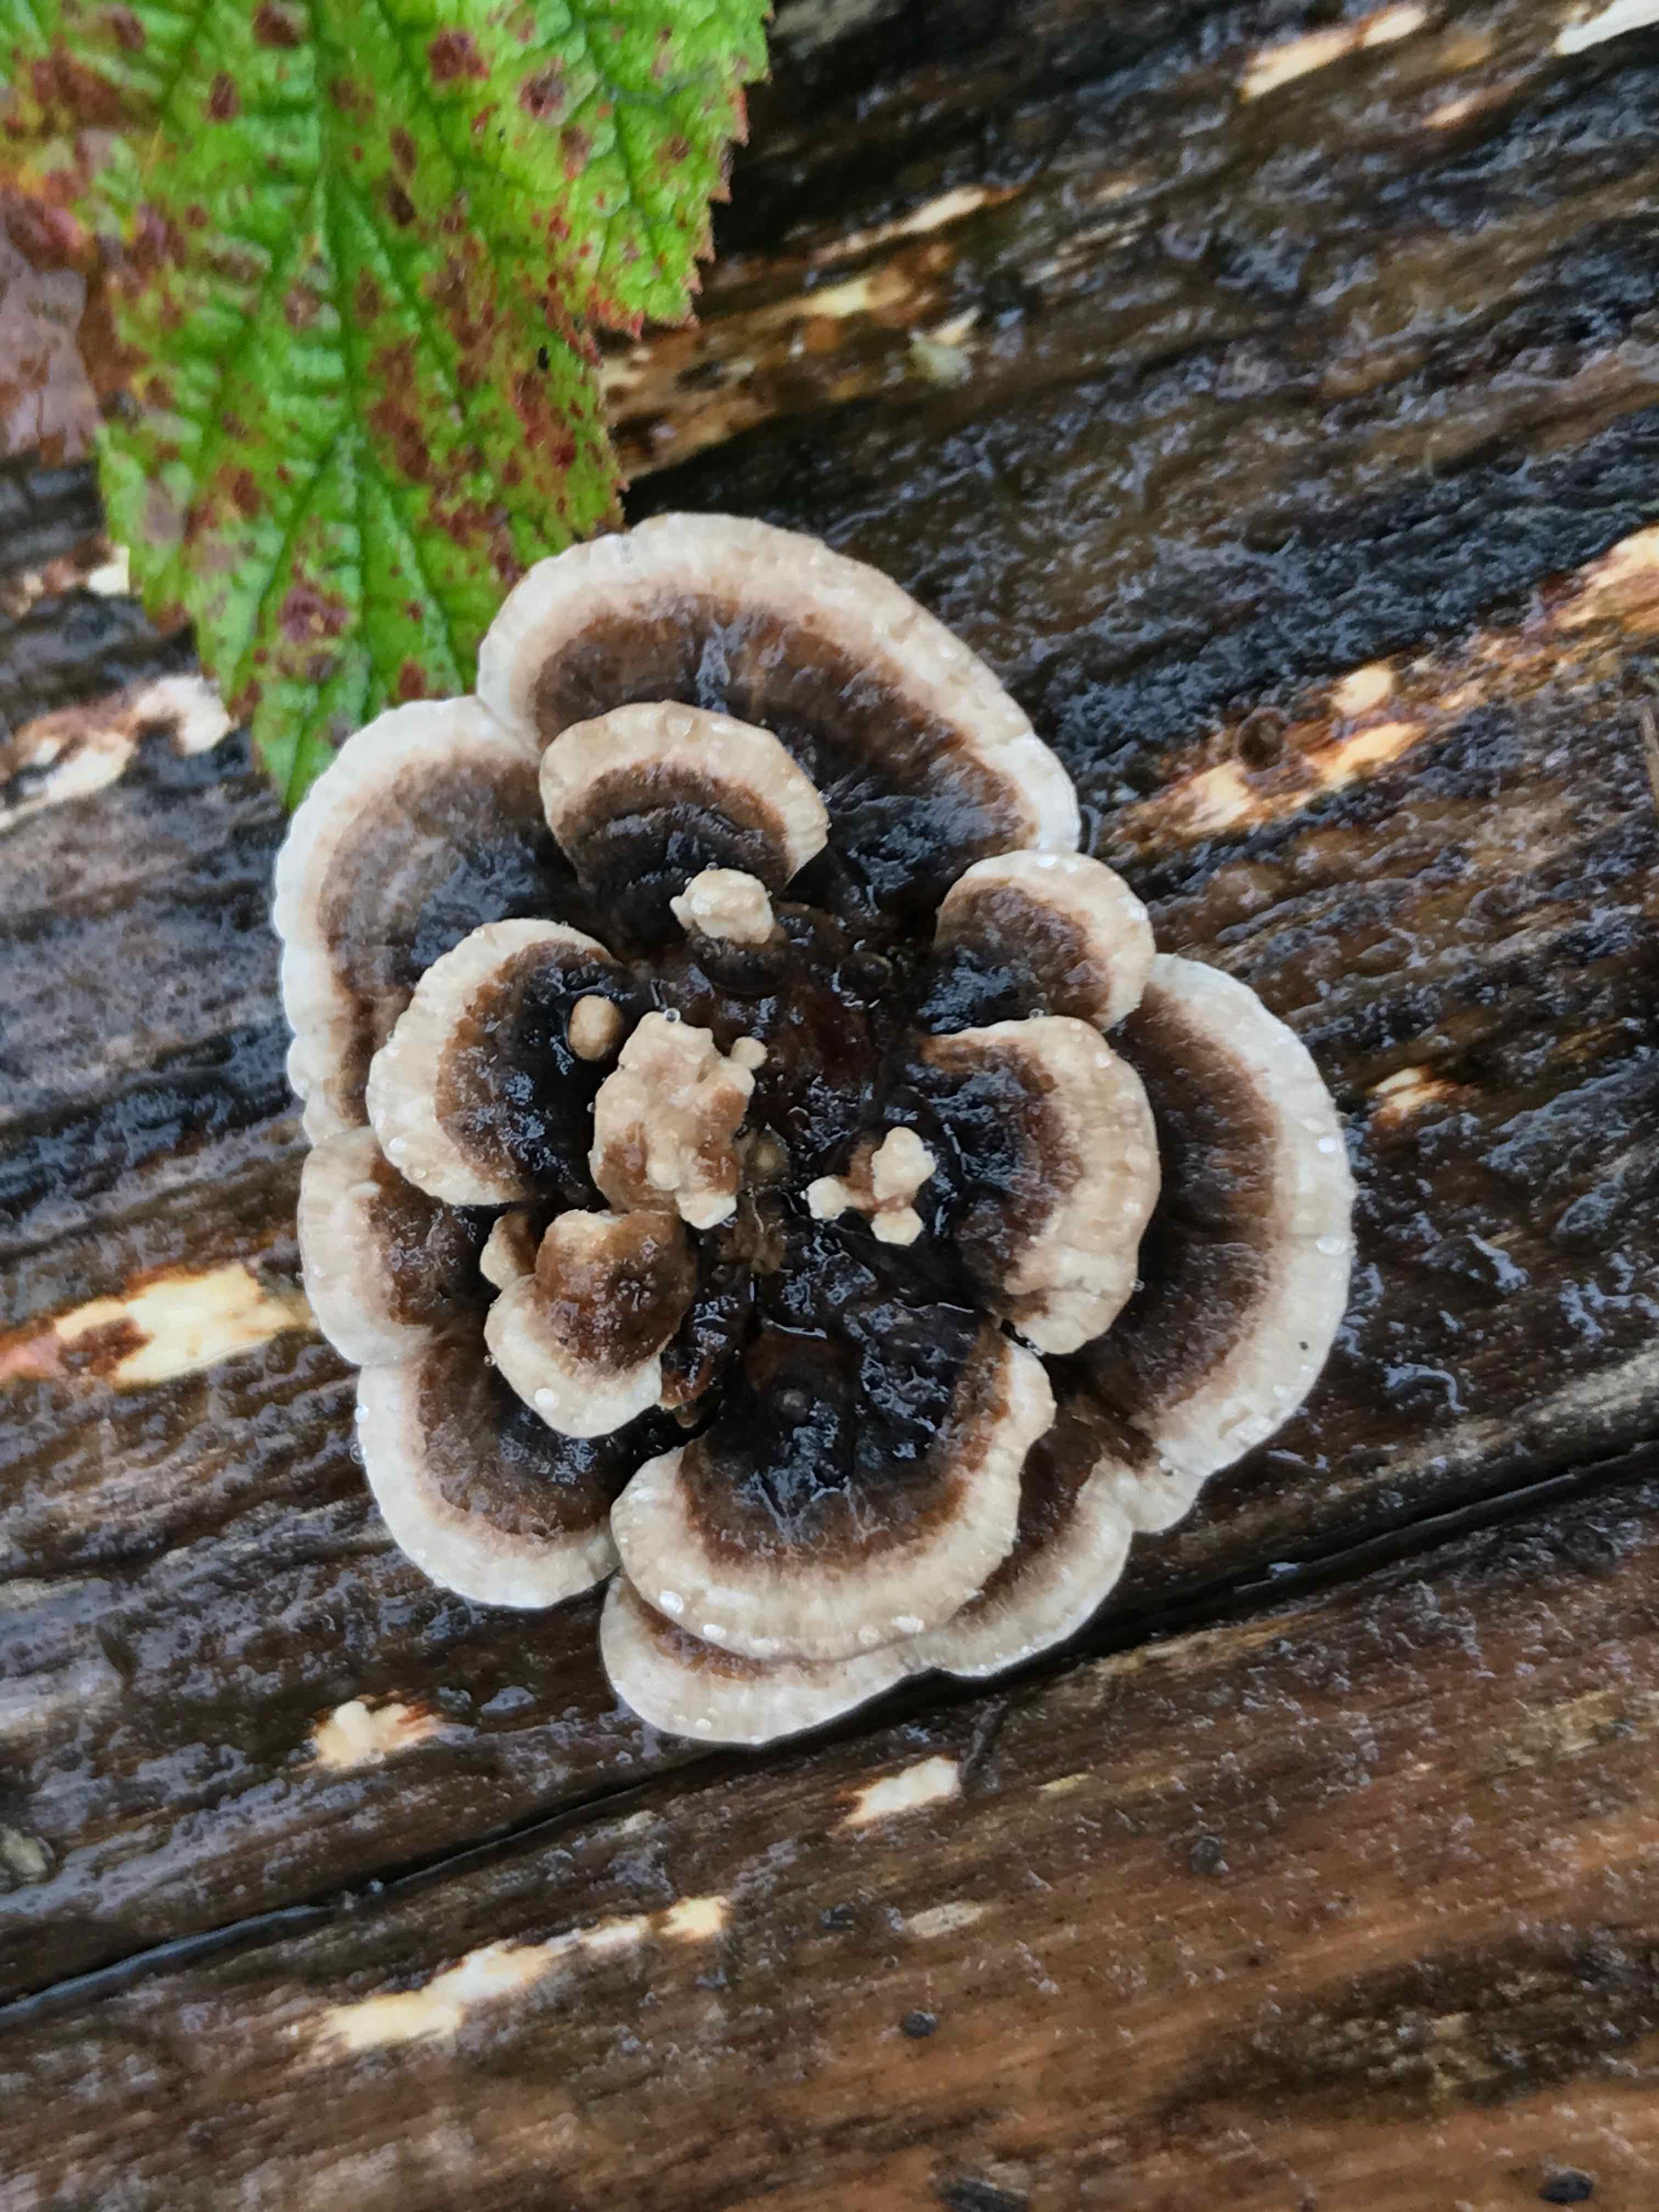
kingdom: Fungi
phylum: Basidiomycota
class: Agaricomycetes
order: Polyporales
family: Polyporaceae
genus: Trametes
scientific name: Trametes versicolor
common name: broget læderporesvamp
